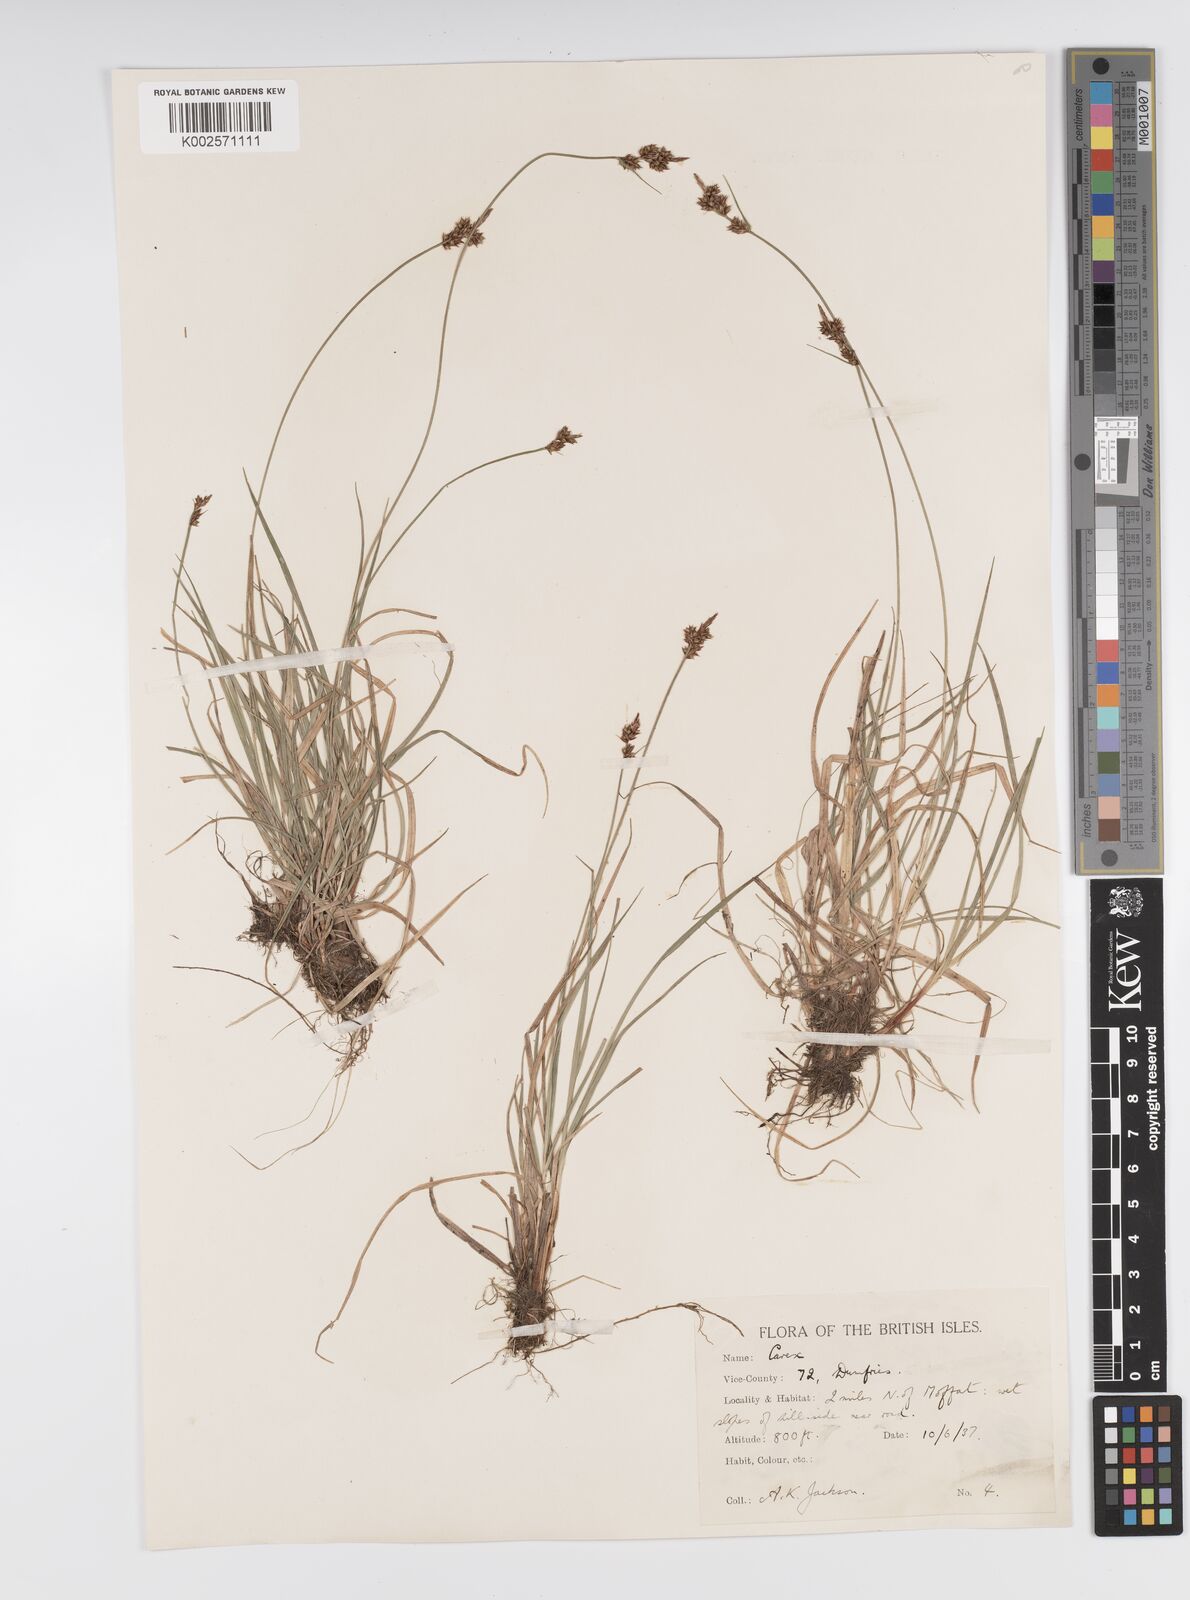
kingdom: Plantae
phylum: Tracheophyta
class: Liliopsida
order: Poales
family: Cyperaceae
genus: Carex
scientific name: Carex pilulifera
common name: Pill sedge
